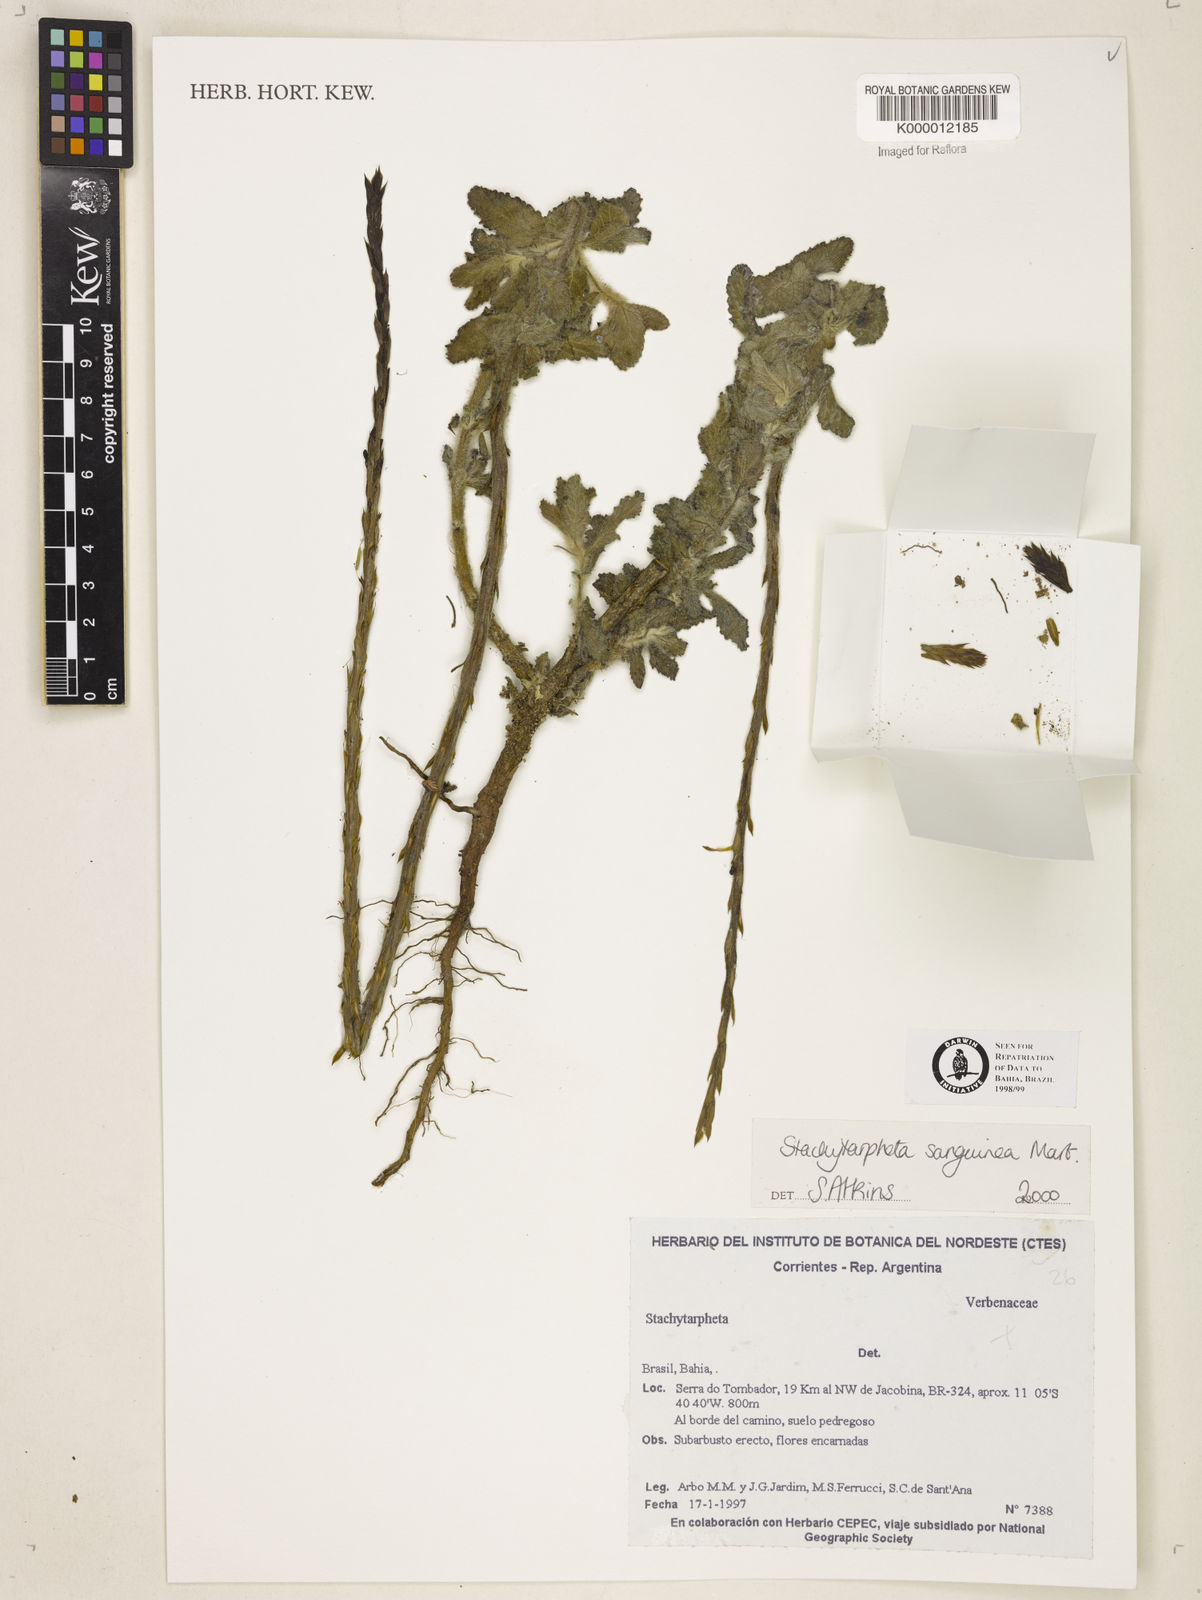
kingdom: Plantae
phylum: Tracheophyta
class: Magnoliopsida
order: Lamiales
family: Verbenaceae
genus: Stachytarpheta
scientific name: Stachytarpheta
